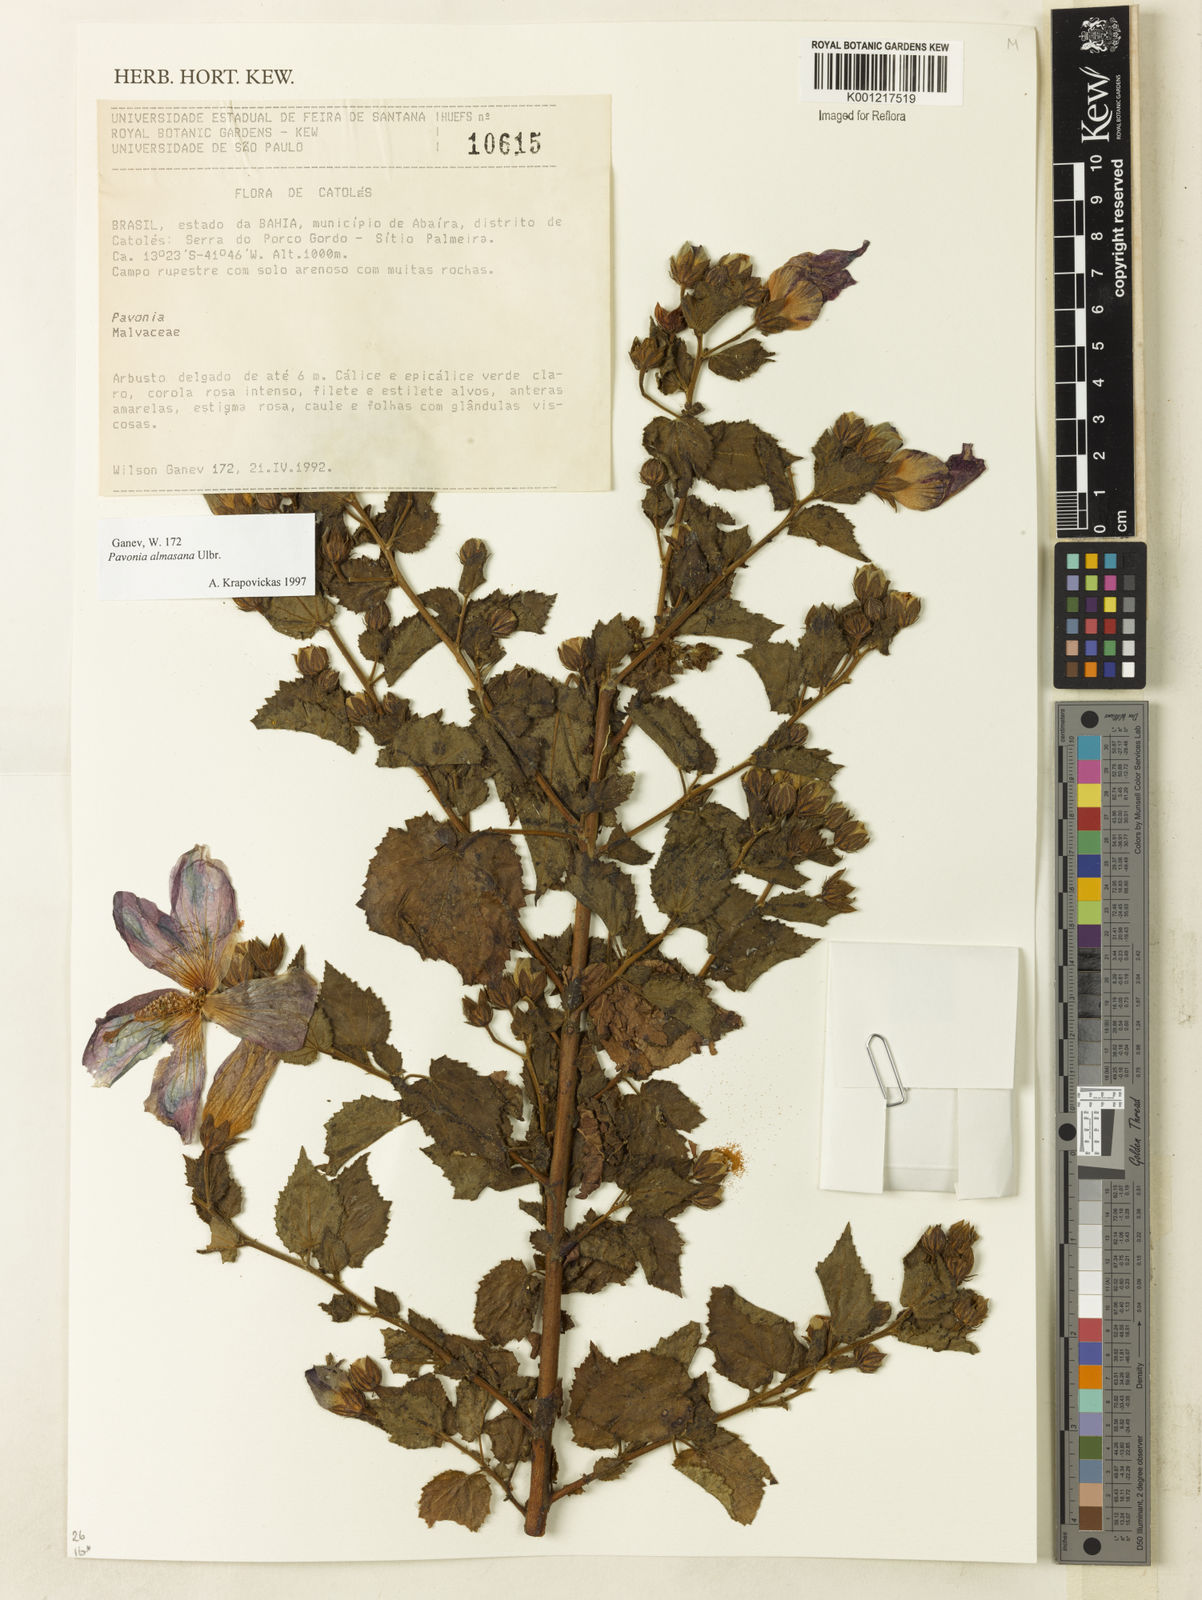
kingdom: Plantae
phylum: Tracheophyta
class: Magnoliopsida
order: Malvales
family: Malvaceae
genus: Pavonia
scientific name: Pavonia almasana
